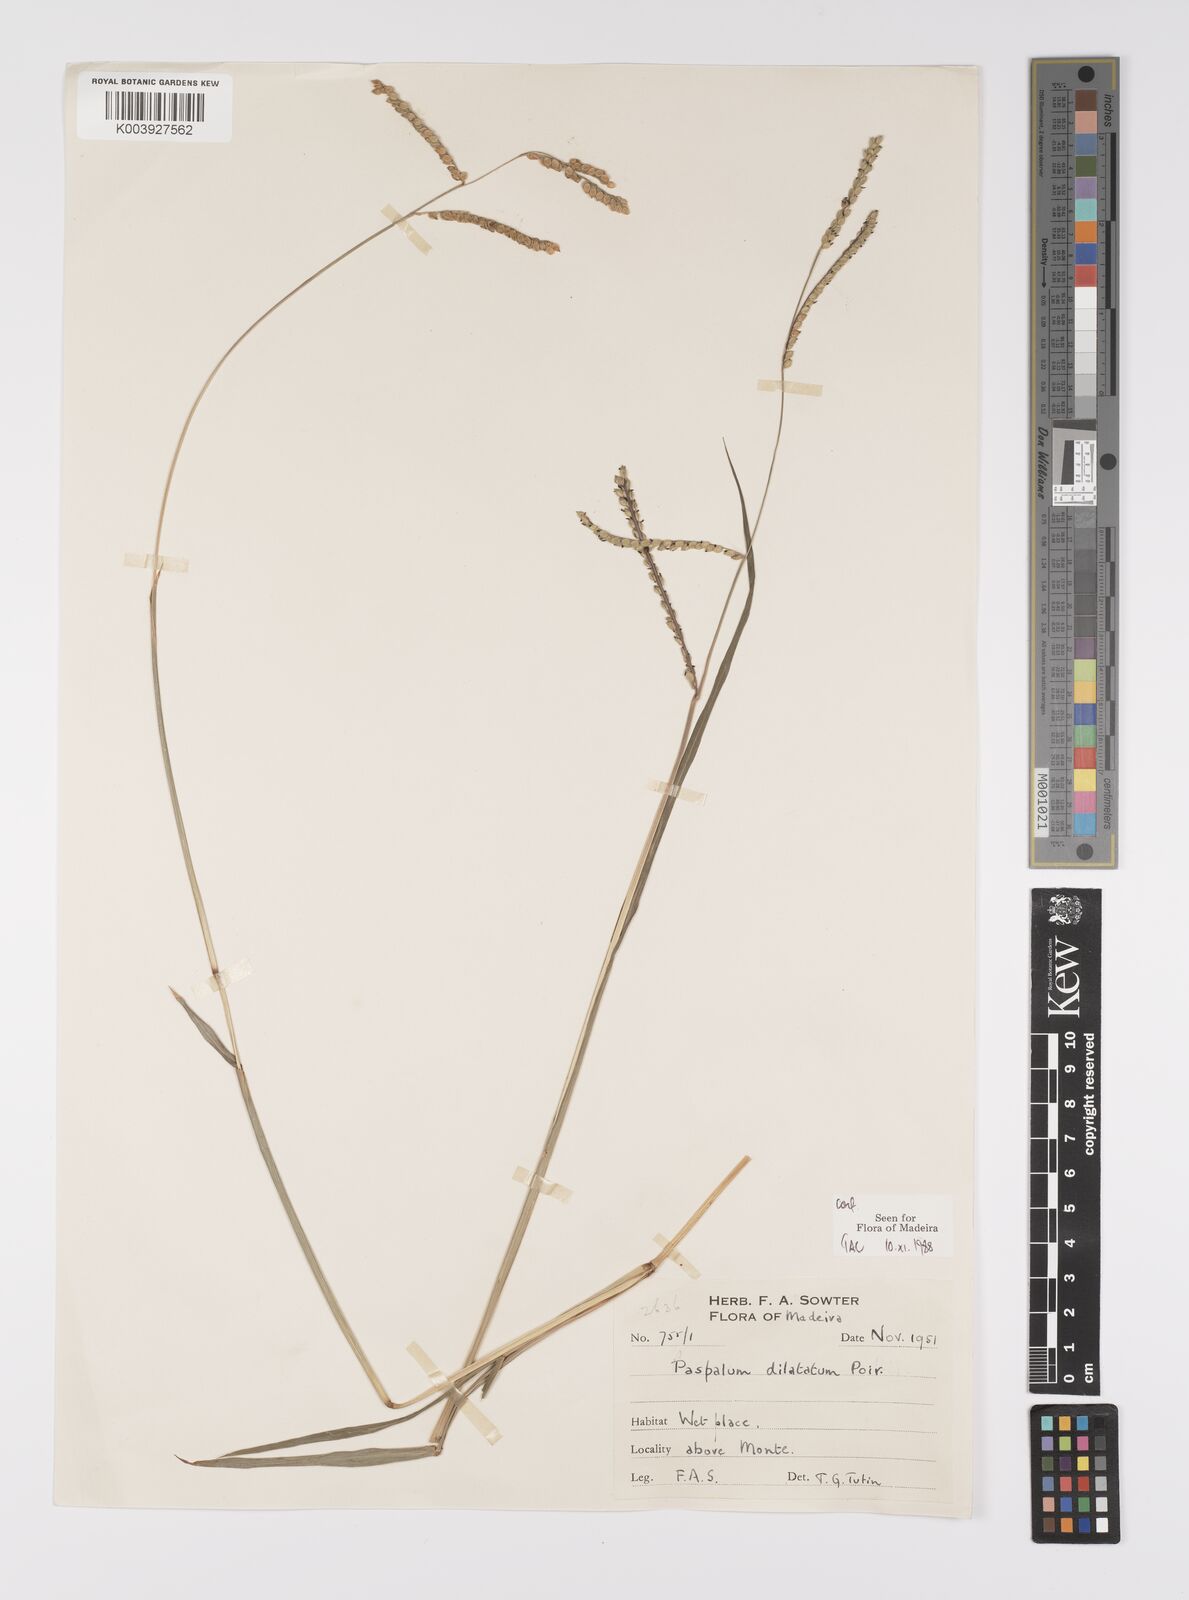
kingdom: Plantae
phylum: Tracheophyta
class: Liliopsida
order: Poales
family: Poaceae
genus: Paspalum
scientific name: Paspalum
